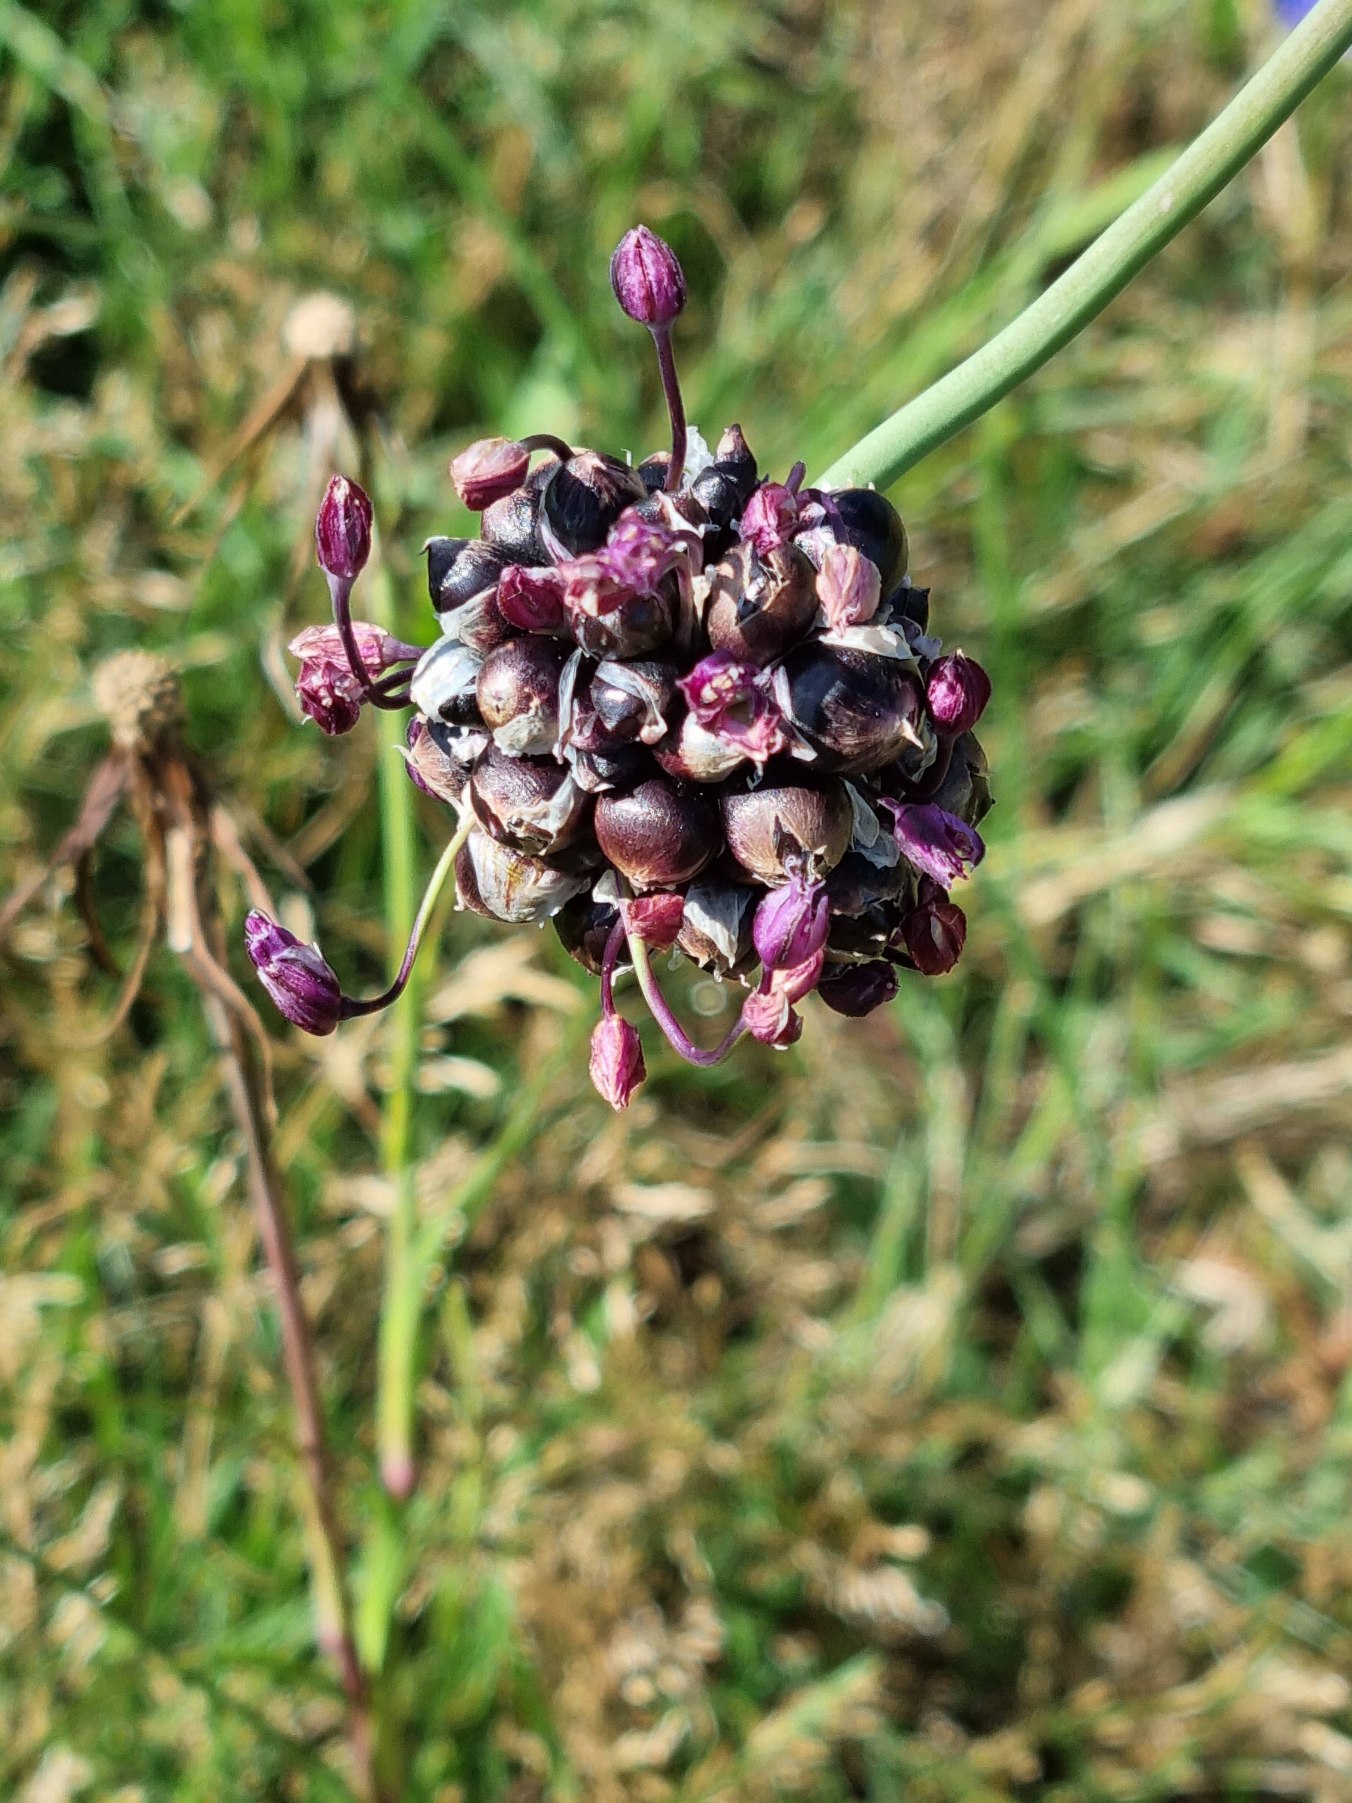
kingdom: Plantae
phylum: Tracheophyta
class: Liliopsida
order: Asparagales
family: Amaryllidaceae
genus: Allium
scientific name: Allium scorodoprasum
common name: Skov-løg
